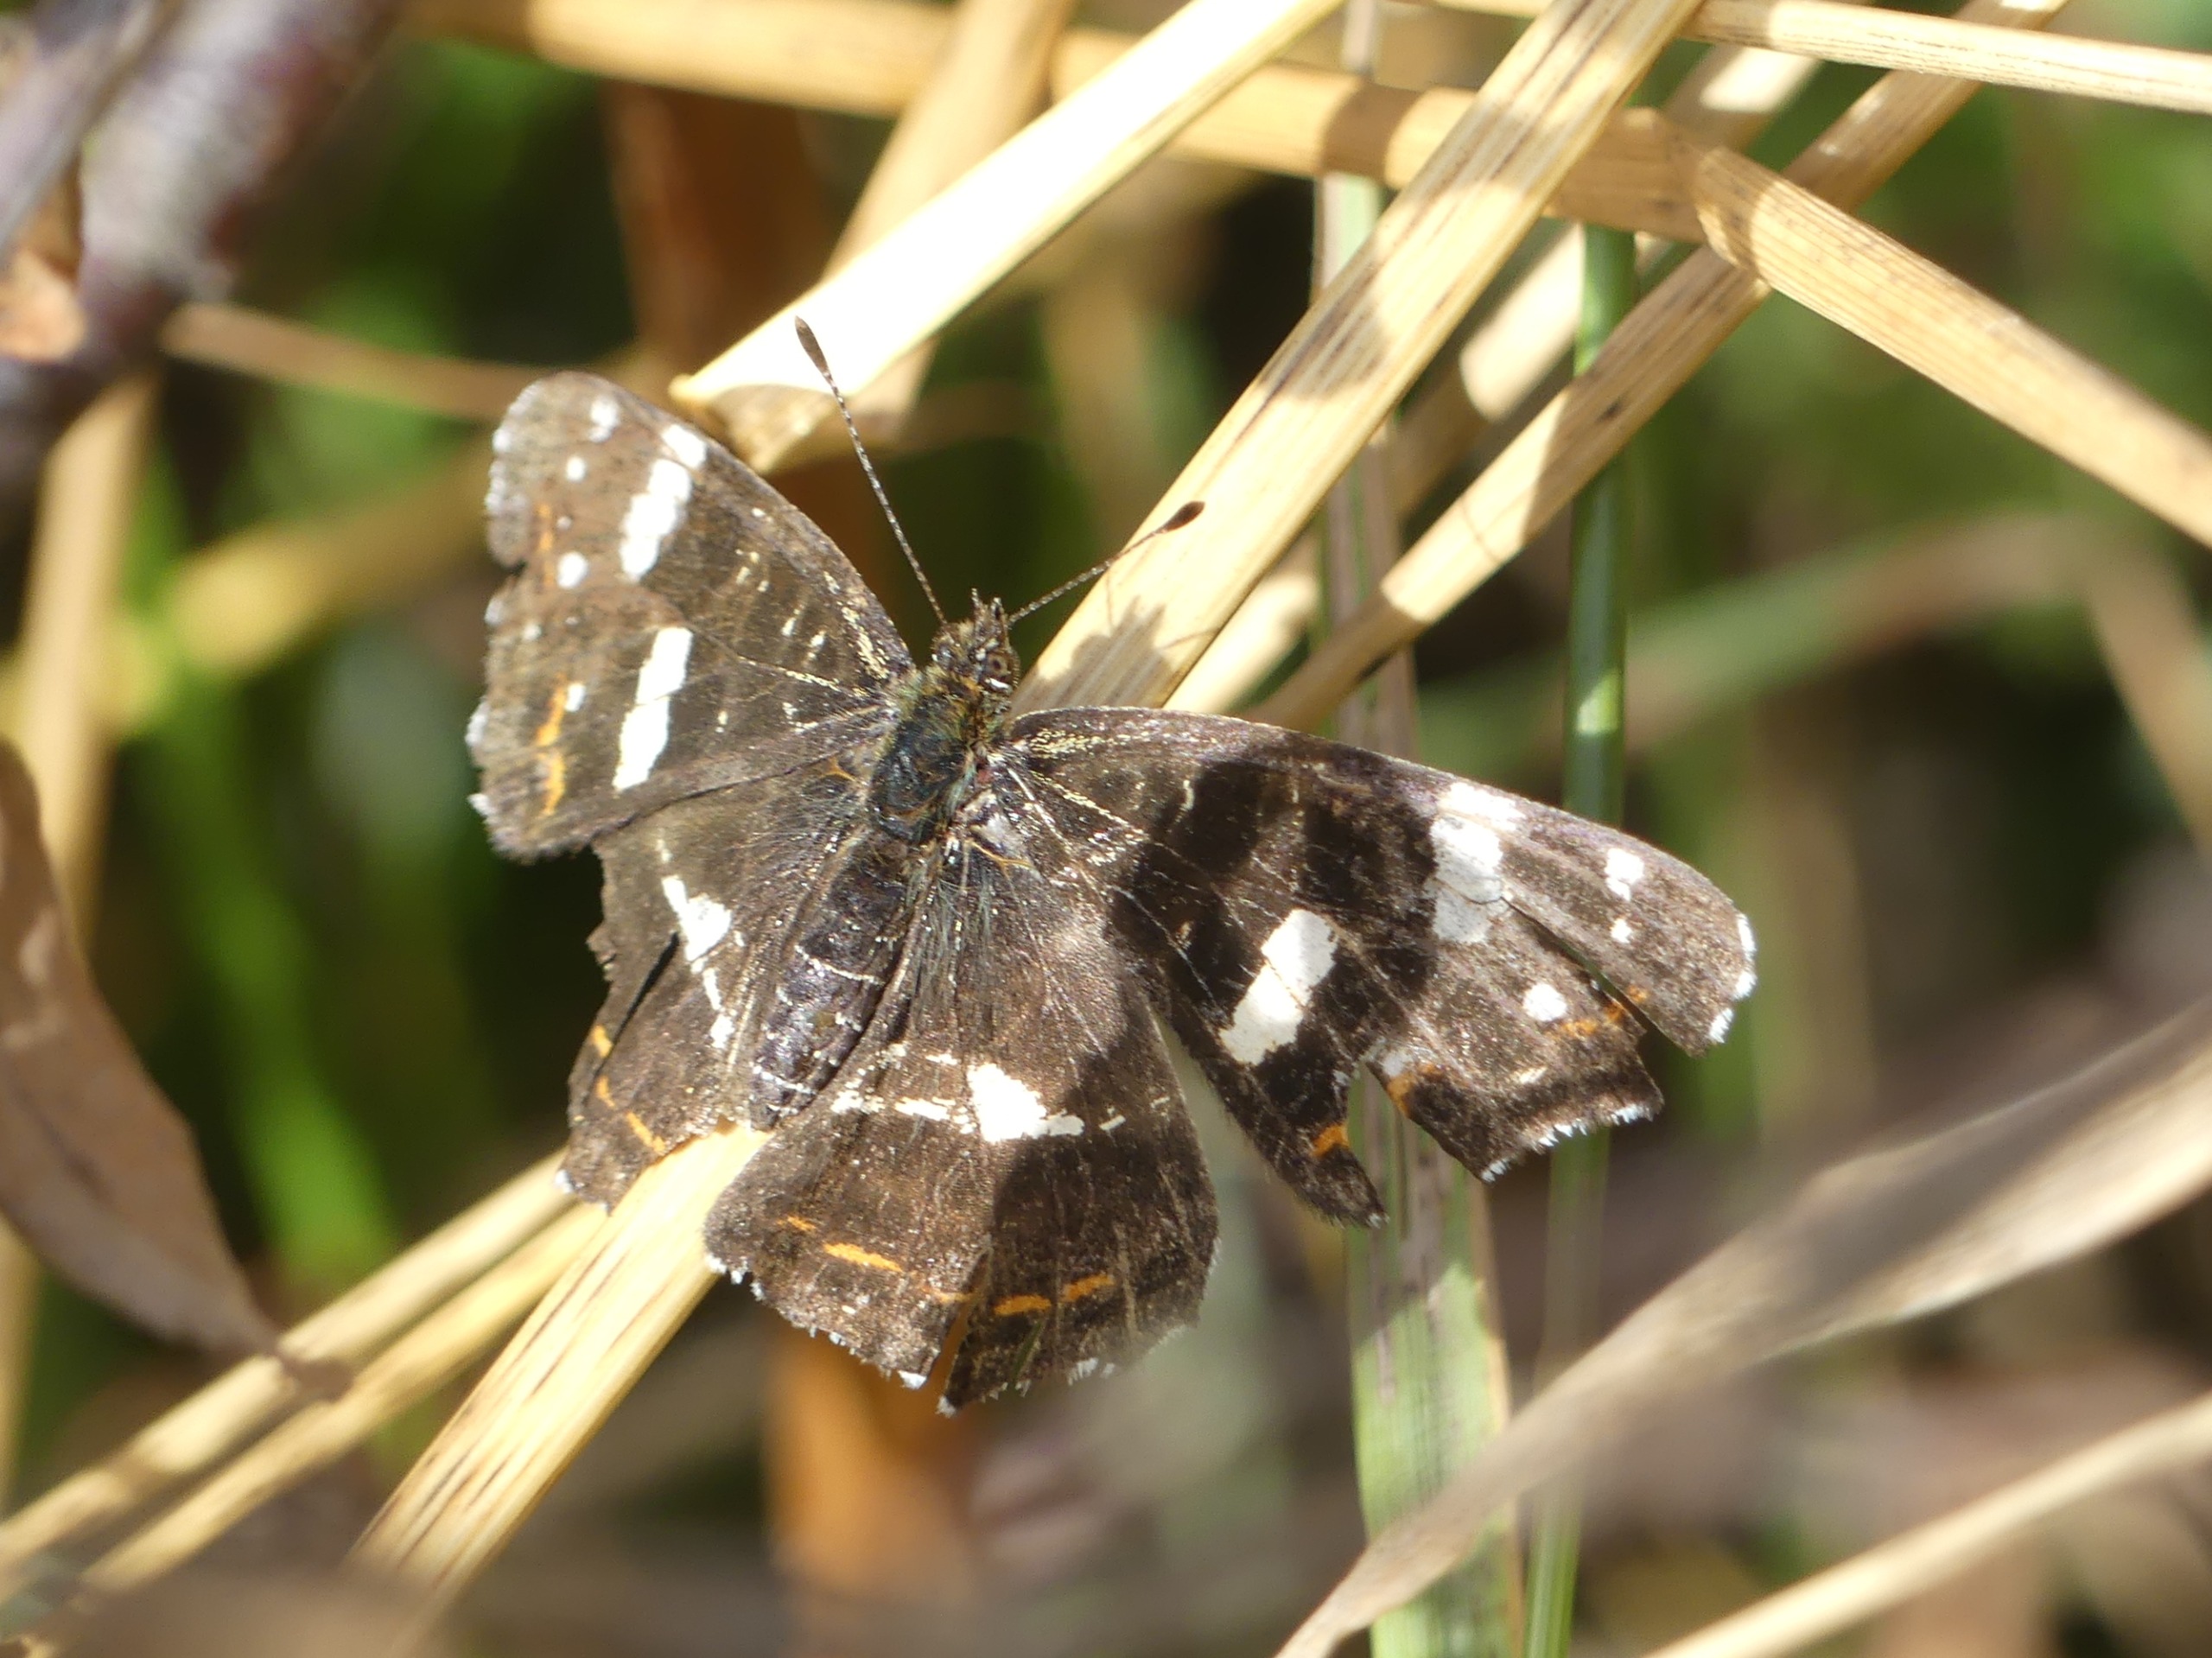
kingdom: Animalia
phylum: Arthropoda
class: Insecta
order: Lepidoptera
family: Nymphalidae
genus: Araschnia
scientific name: Araschnia levana
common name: Nældesommerfugl
